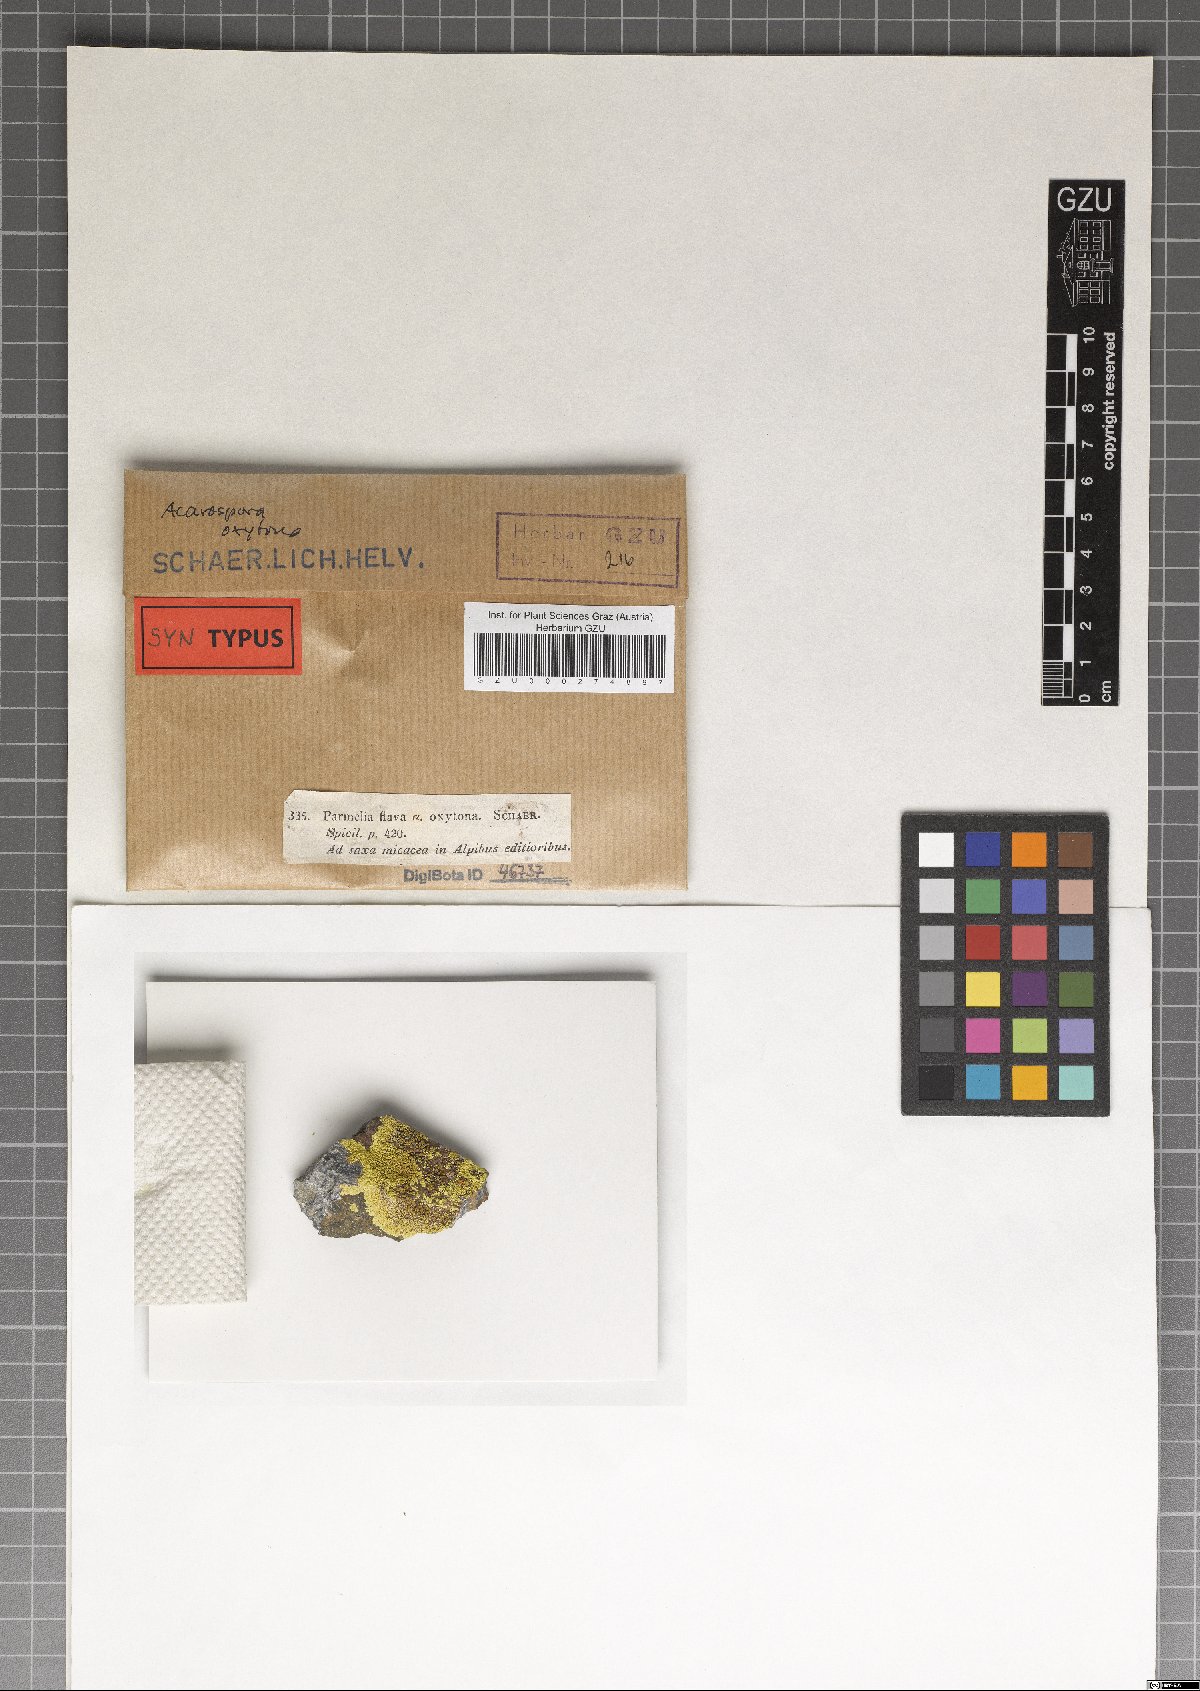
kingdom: Fungi
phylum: Ascomycota
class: Lecanoromycetes
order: Acarosporales
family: Acarosporaceae
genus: Pleopsidium
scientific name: Pleopsidium oxytonum
